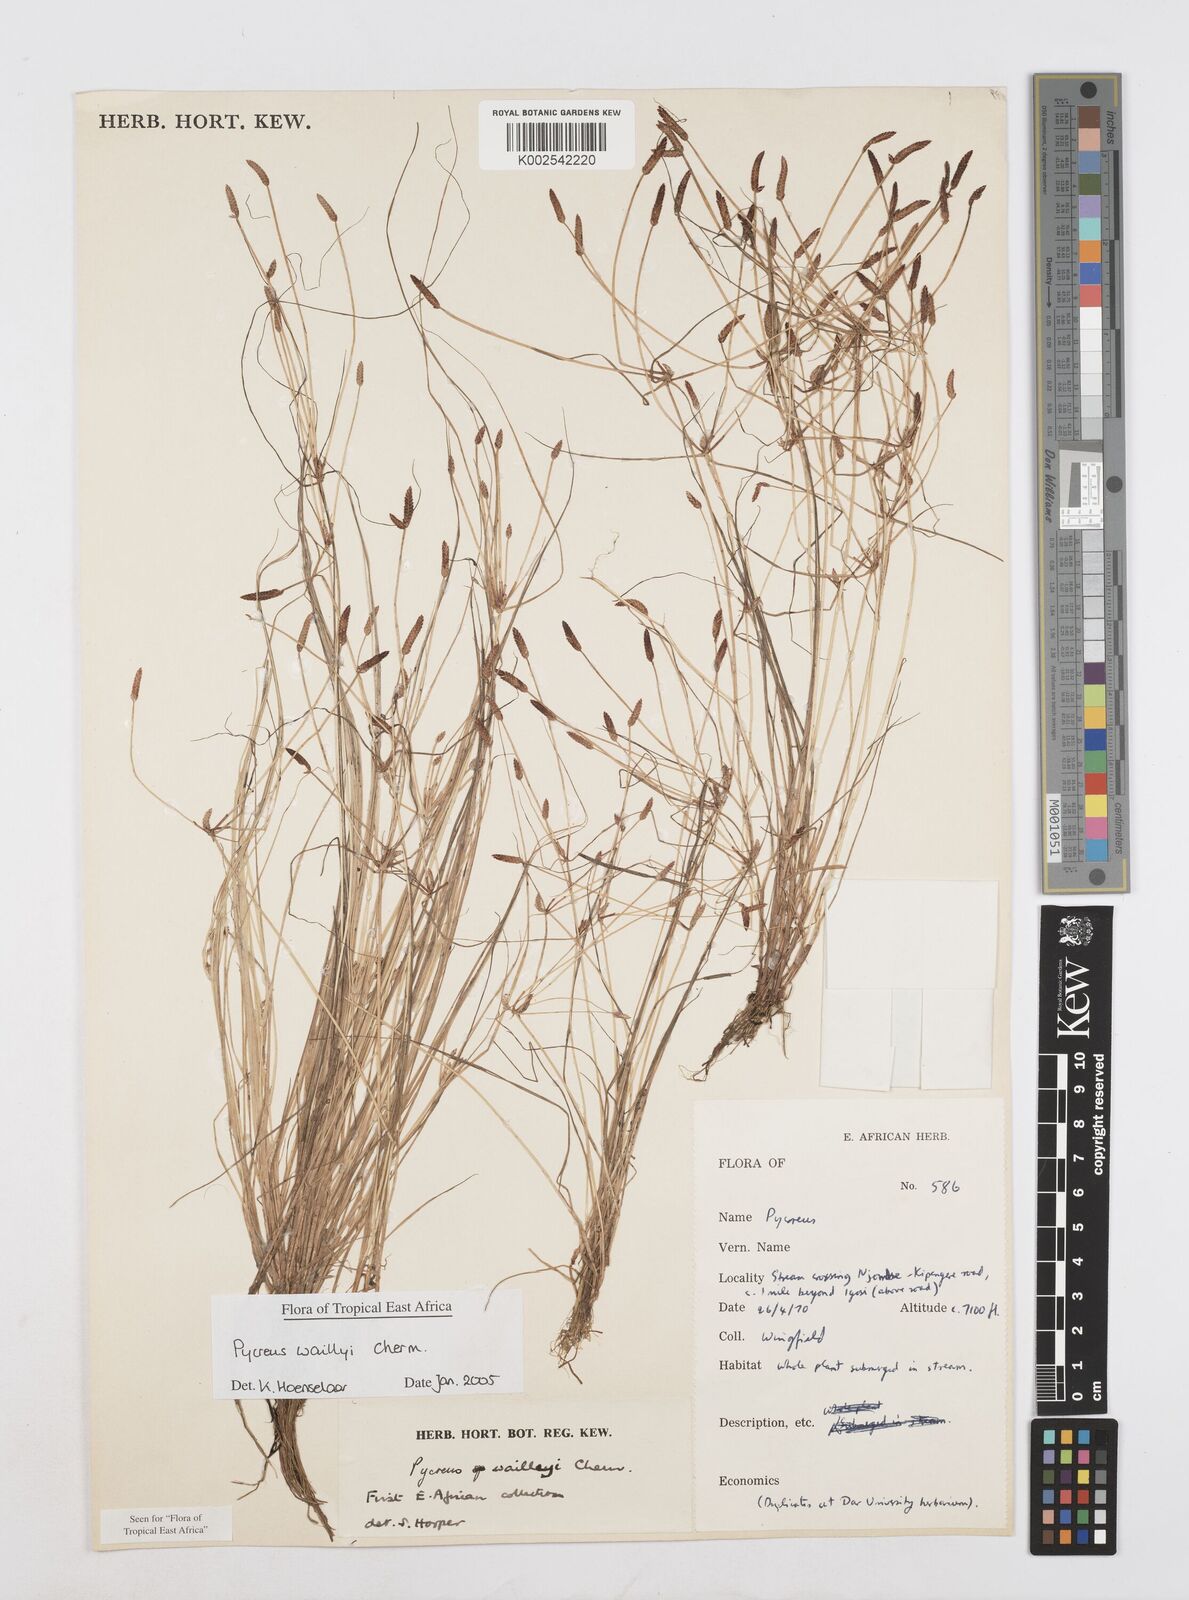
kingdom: Plantae
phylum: Tracheophyta
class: Liliopsida
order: Poales
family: Cyperaceae
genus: Cyperus
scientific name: Cyperus waillyi
